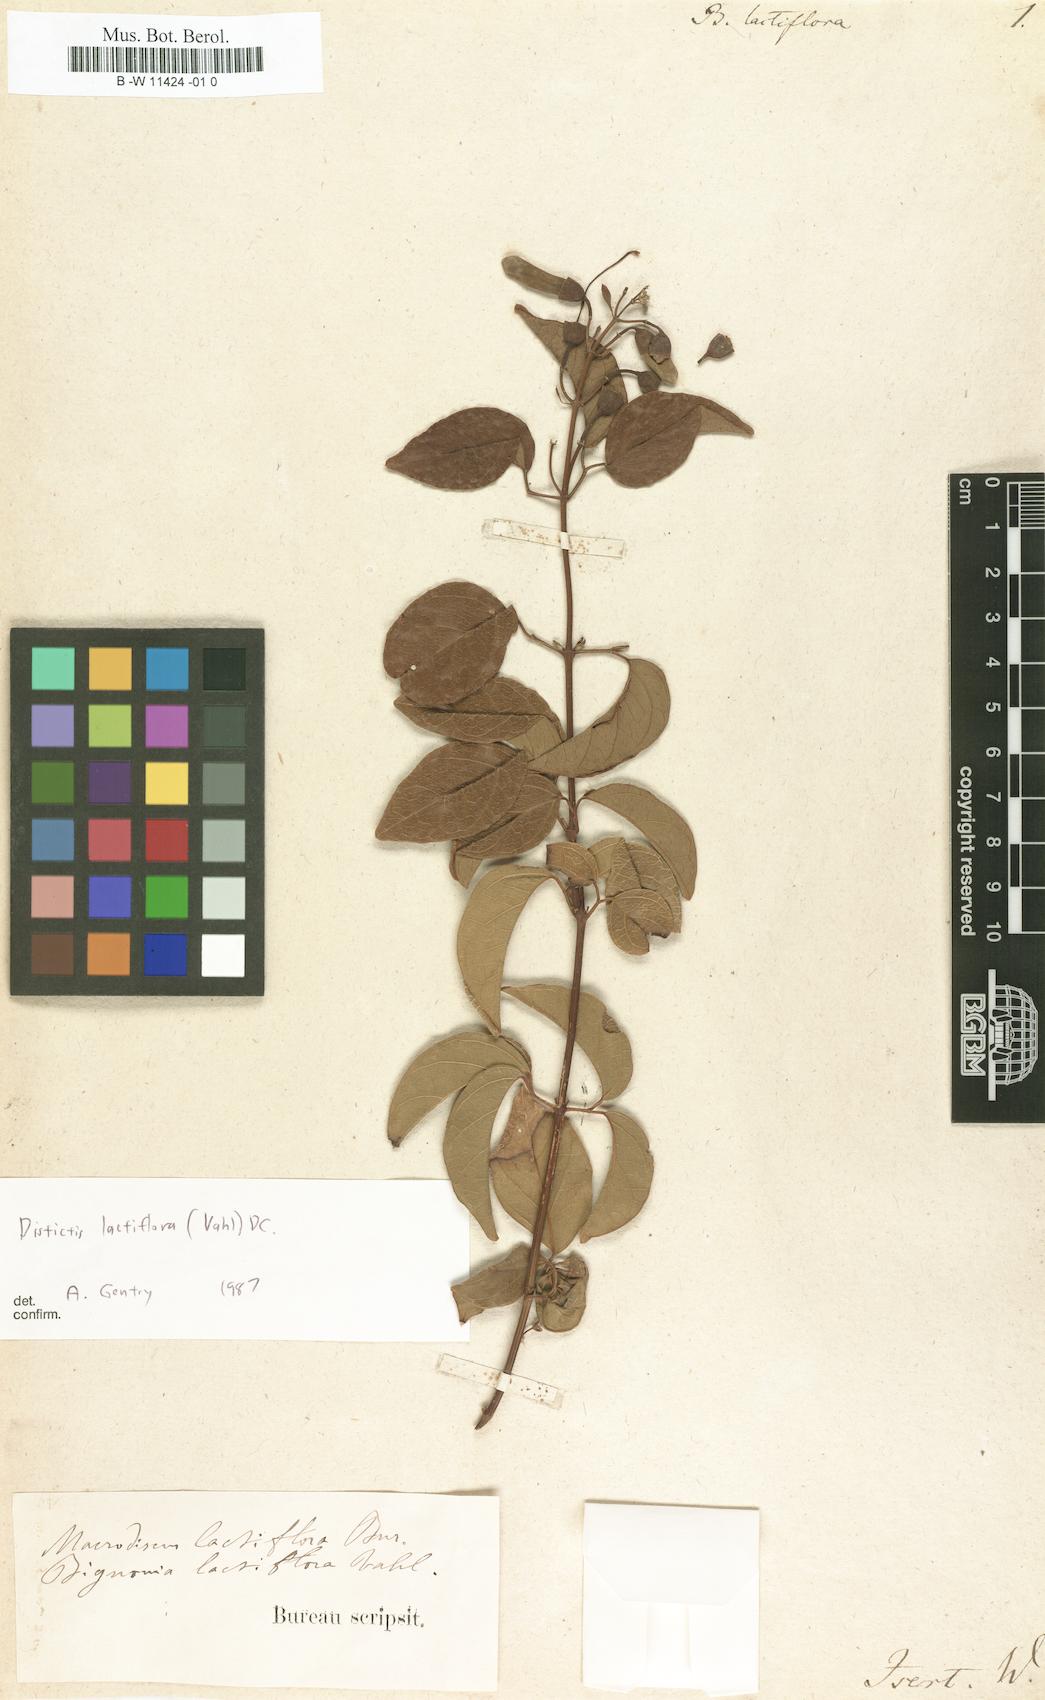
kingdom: Plantae
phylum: Tracheophyta
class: Magnoliopsida
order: Lamiales
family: Bignoniaceae
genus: Amphilophium
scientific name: Amphilophium lactiflorum
